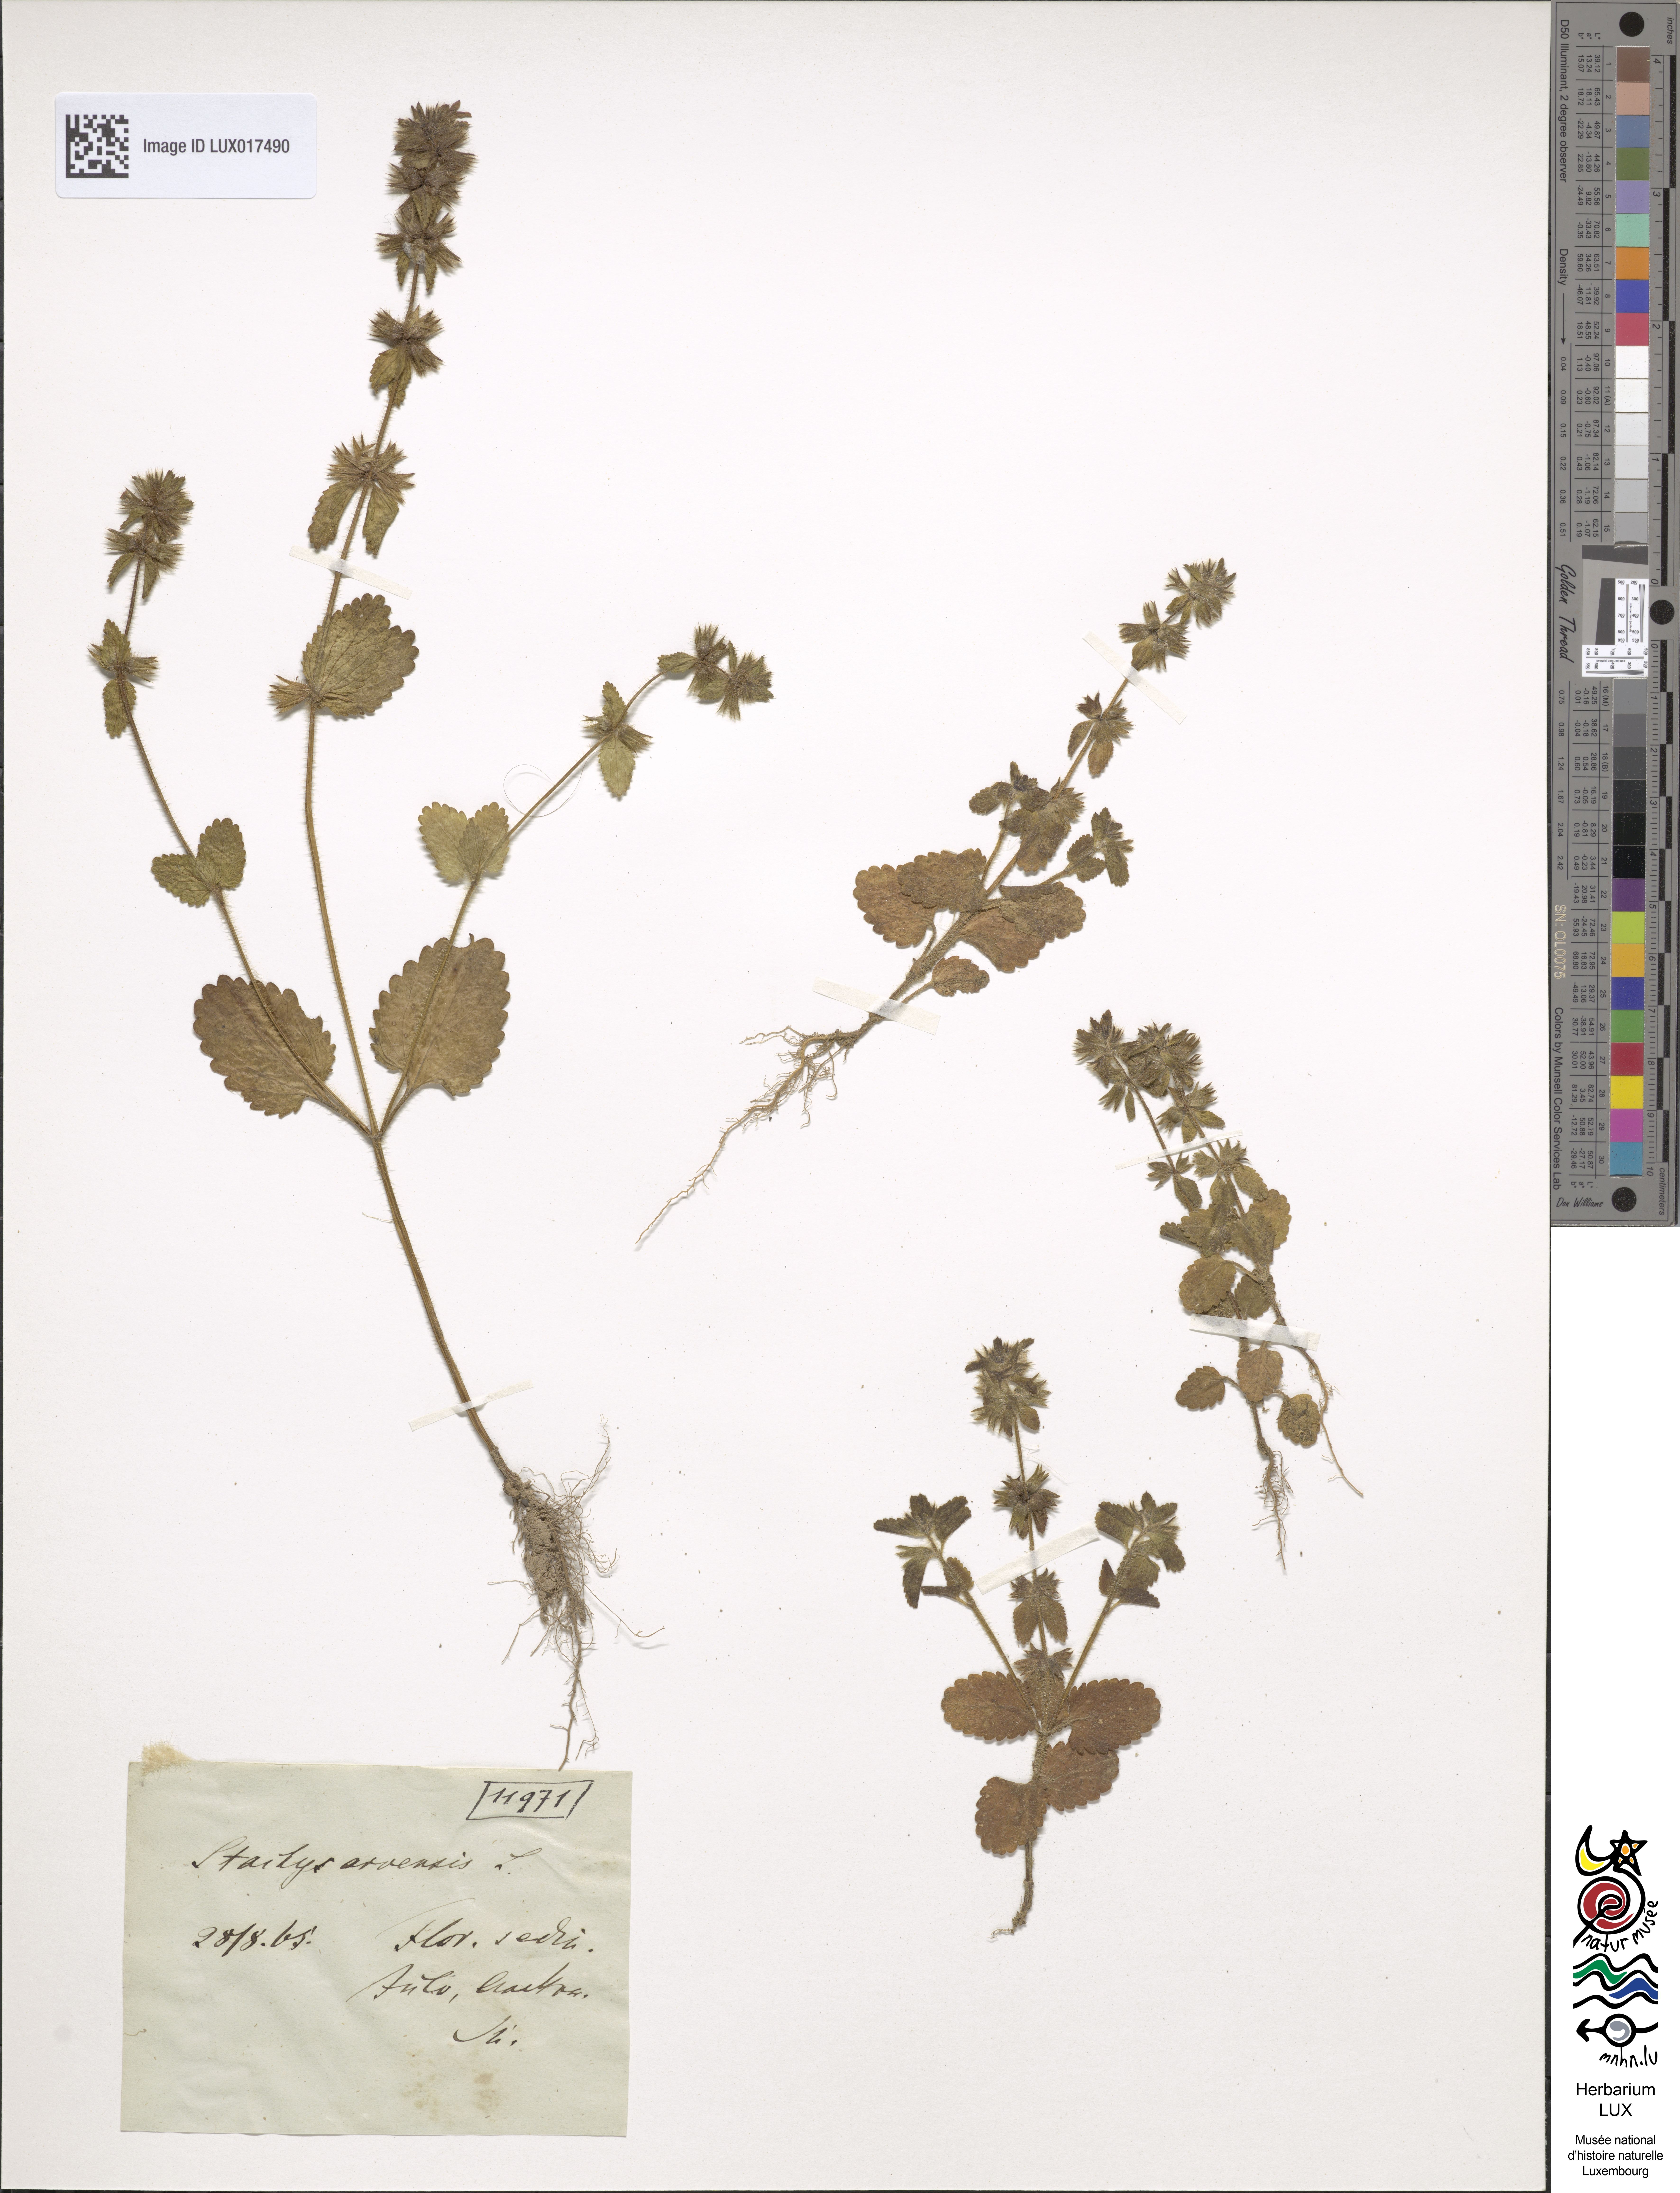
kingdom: Plantae
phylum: Tracheophyta
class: Magnoliopsida
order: Lamiales
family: Lamiaceae
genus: Stachys
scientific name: Stachys arvensis
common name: Field woundwort
